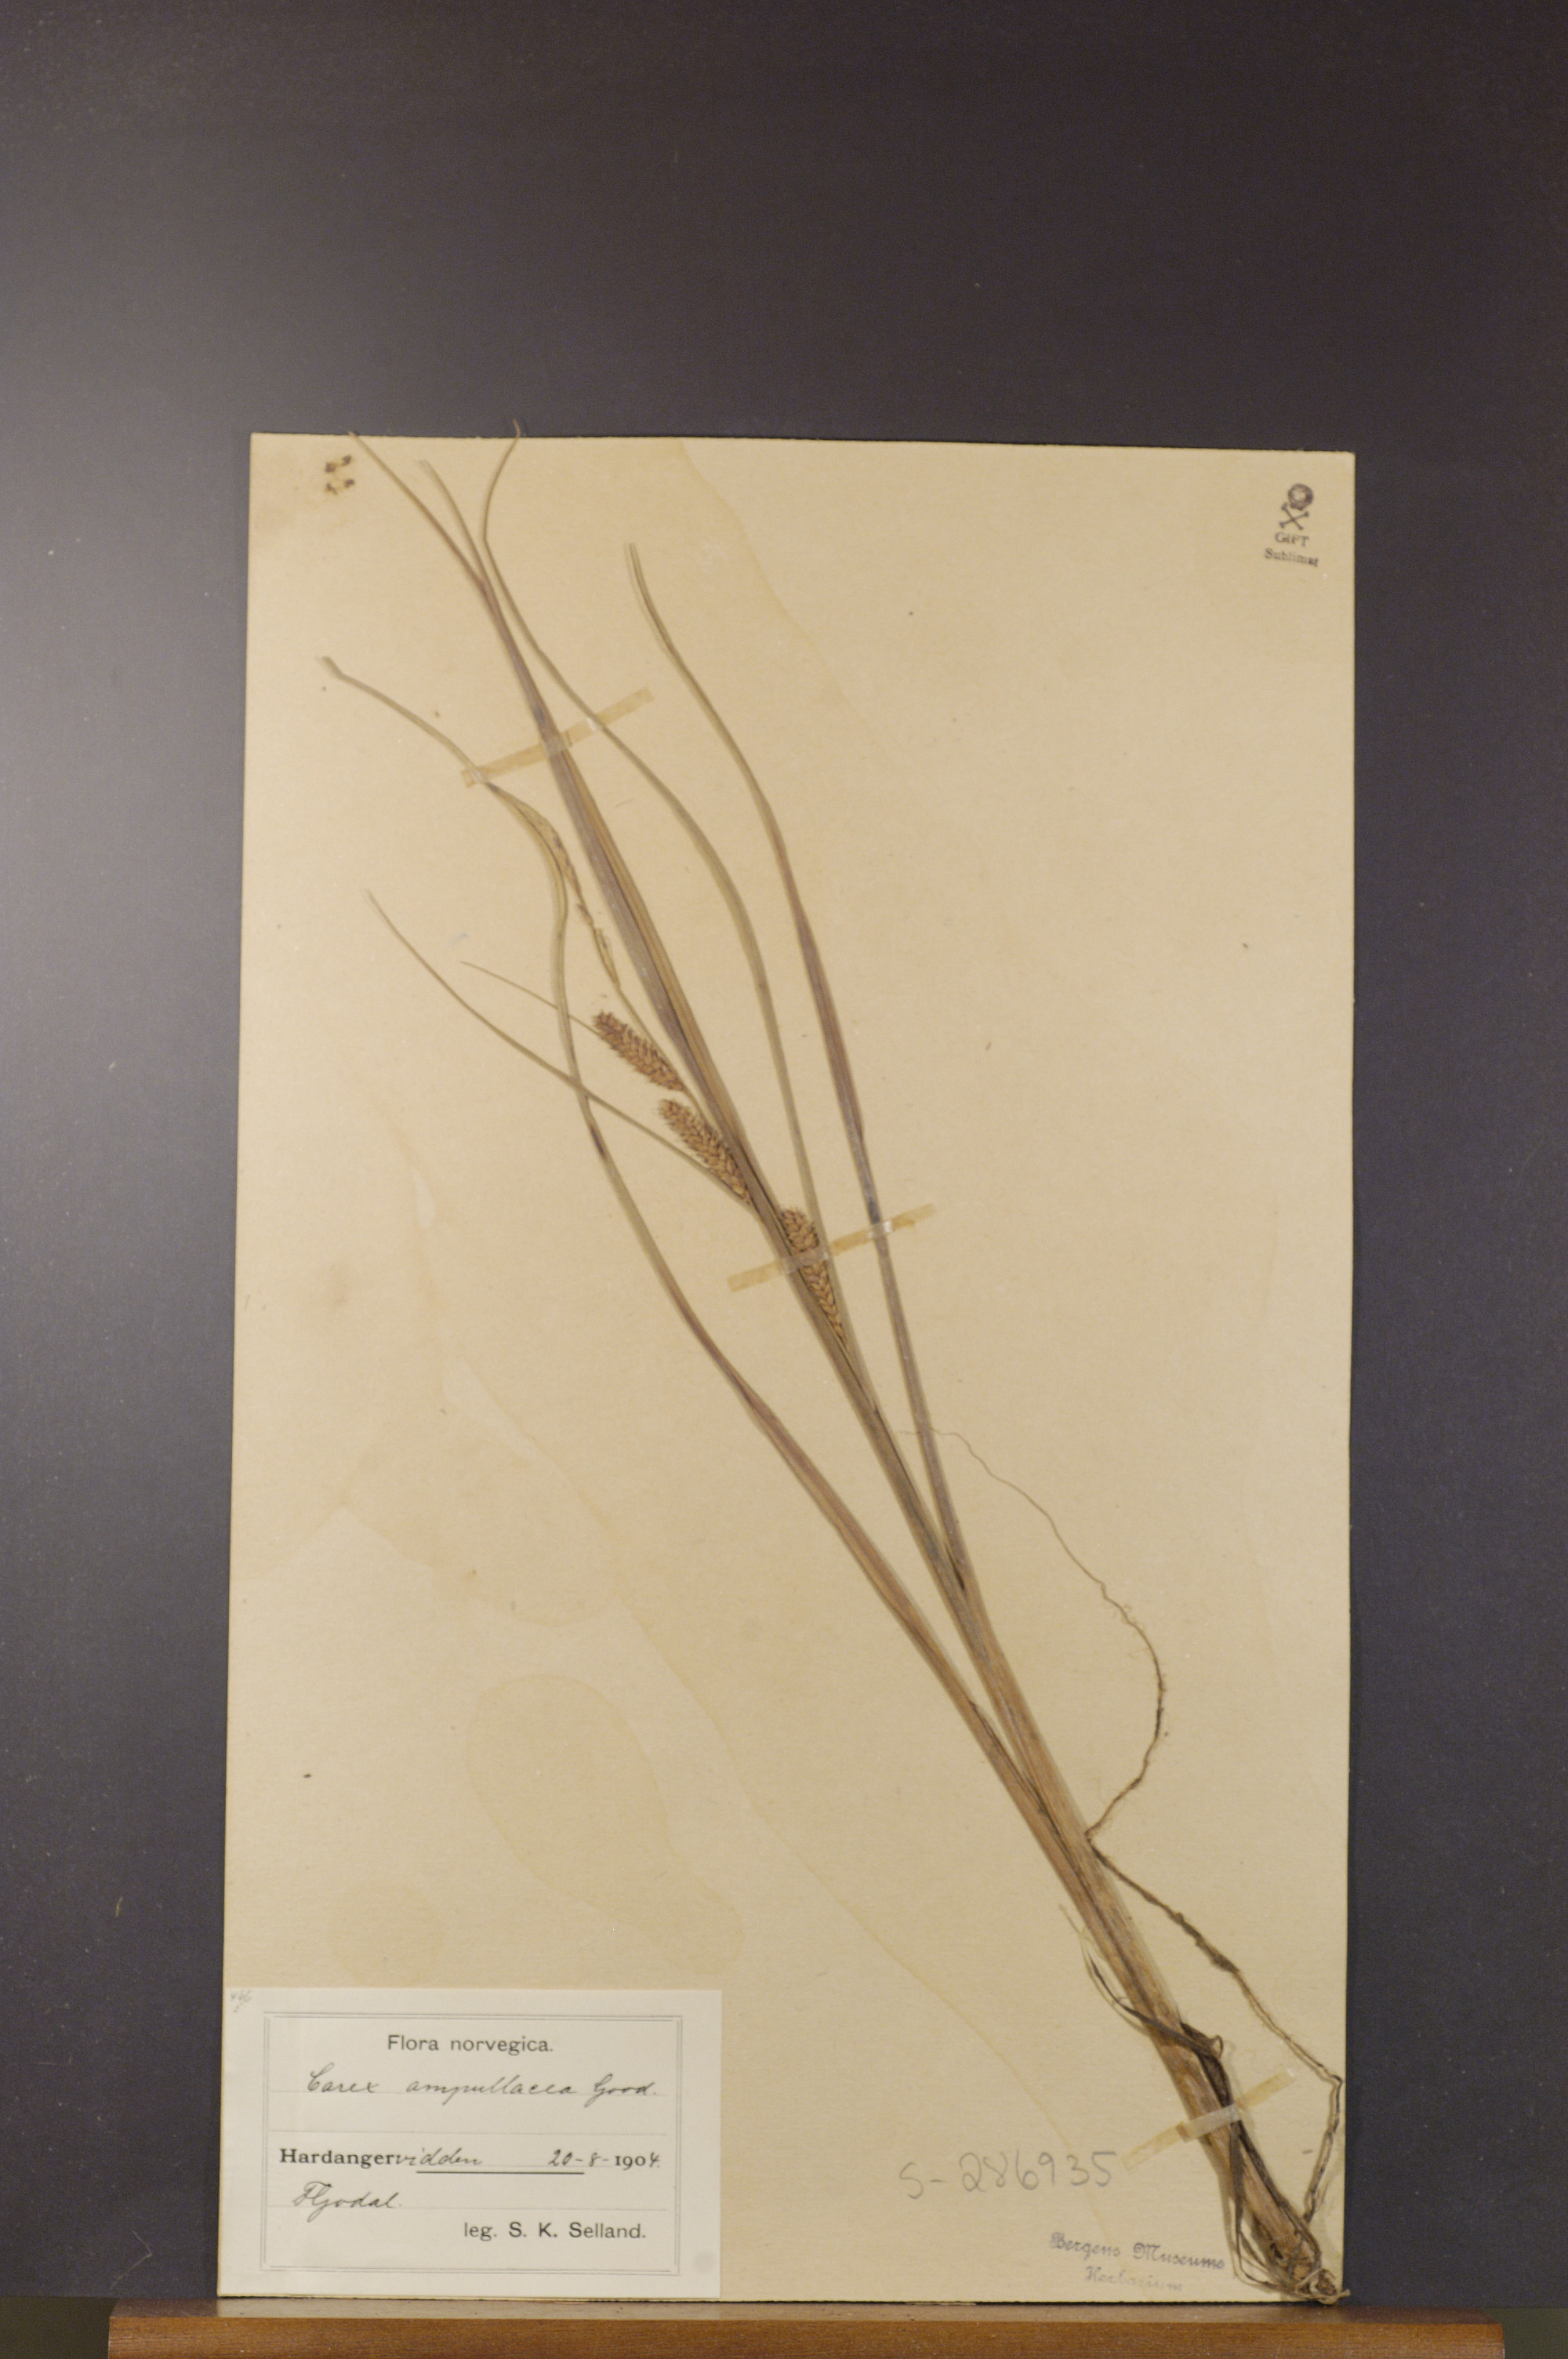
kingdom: Plantae
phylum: Tracheophyta
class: Liliopsida
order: Poales
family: Cyperaceae
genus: Carex
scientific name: Carex rostrata
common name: Bottle sedge
